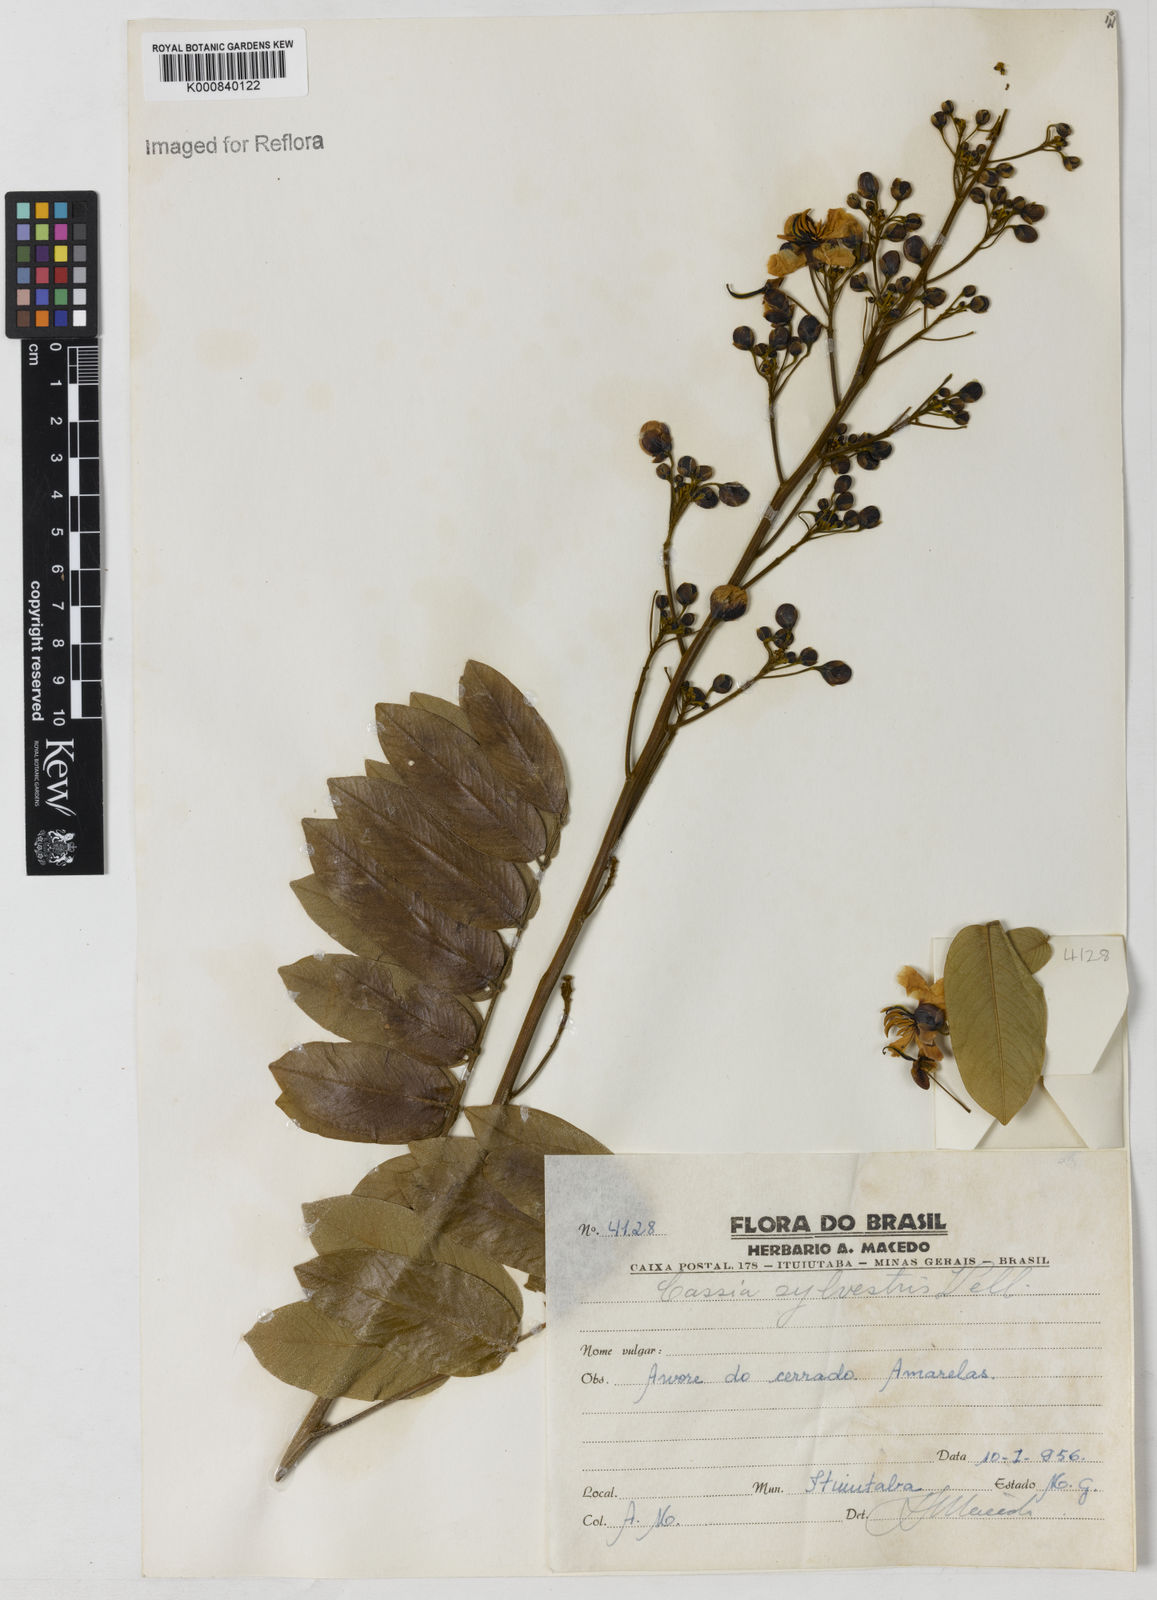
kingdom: Plantae
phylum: Tracheophyta
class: Magnoliopsida
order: Fabales
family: Fabaceae
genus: Senna
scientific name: Senna silvestris
